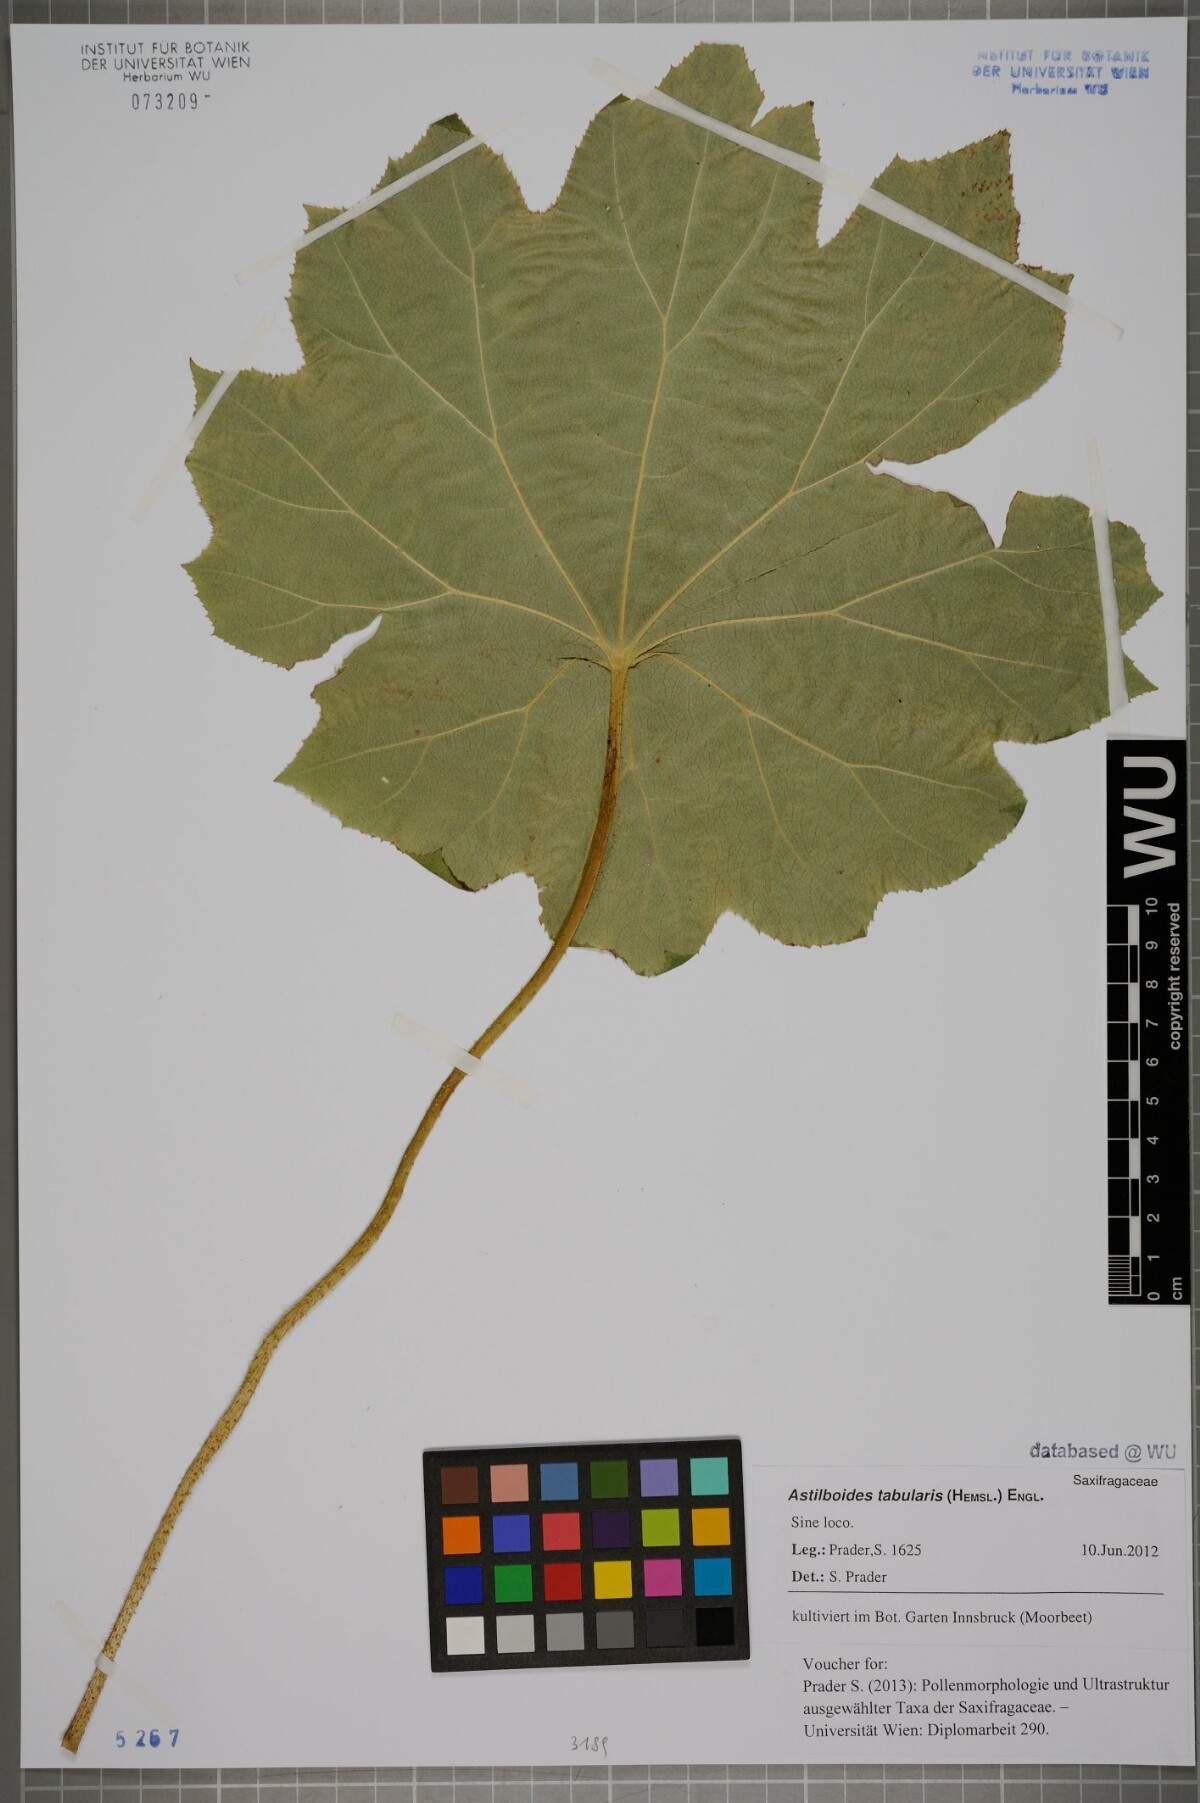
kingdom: Plantae
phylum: Tracheophyta
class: Magnoliopsida
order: Saxifragales
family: Saxifragaceae
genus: Astilboides
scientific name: Astilboides tabularis
